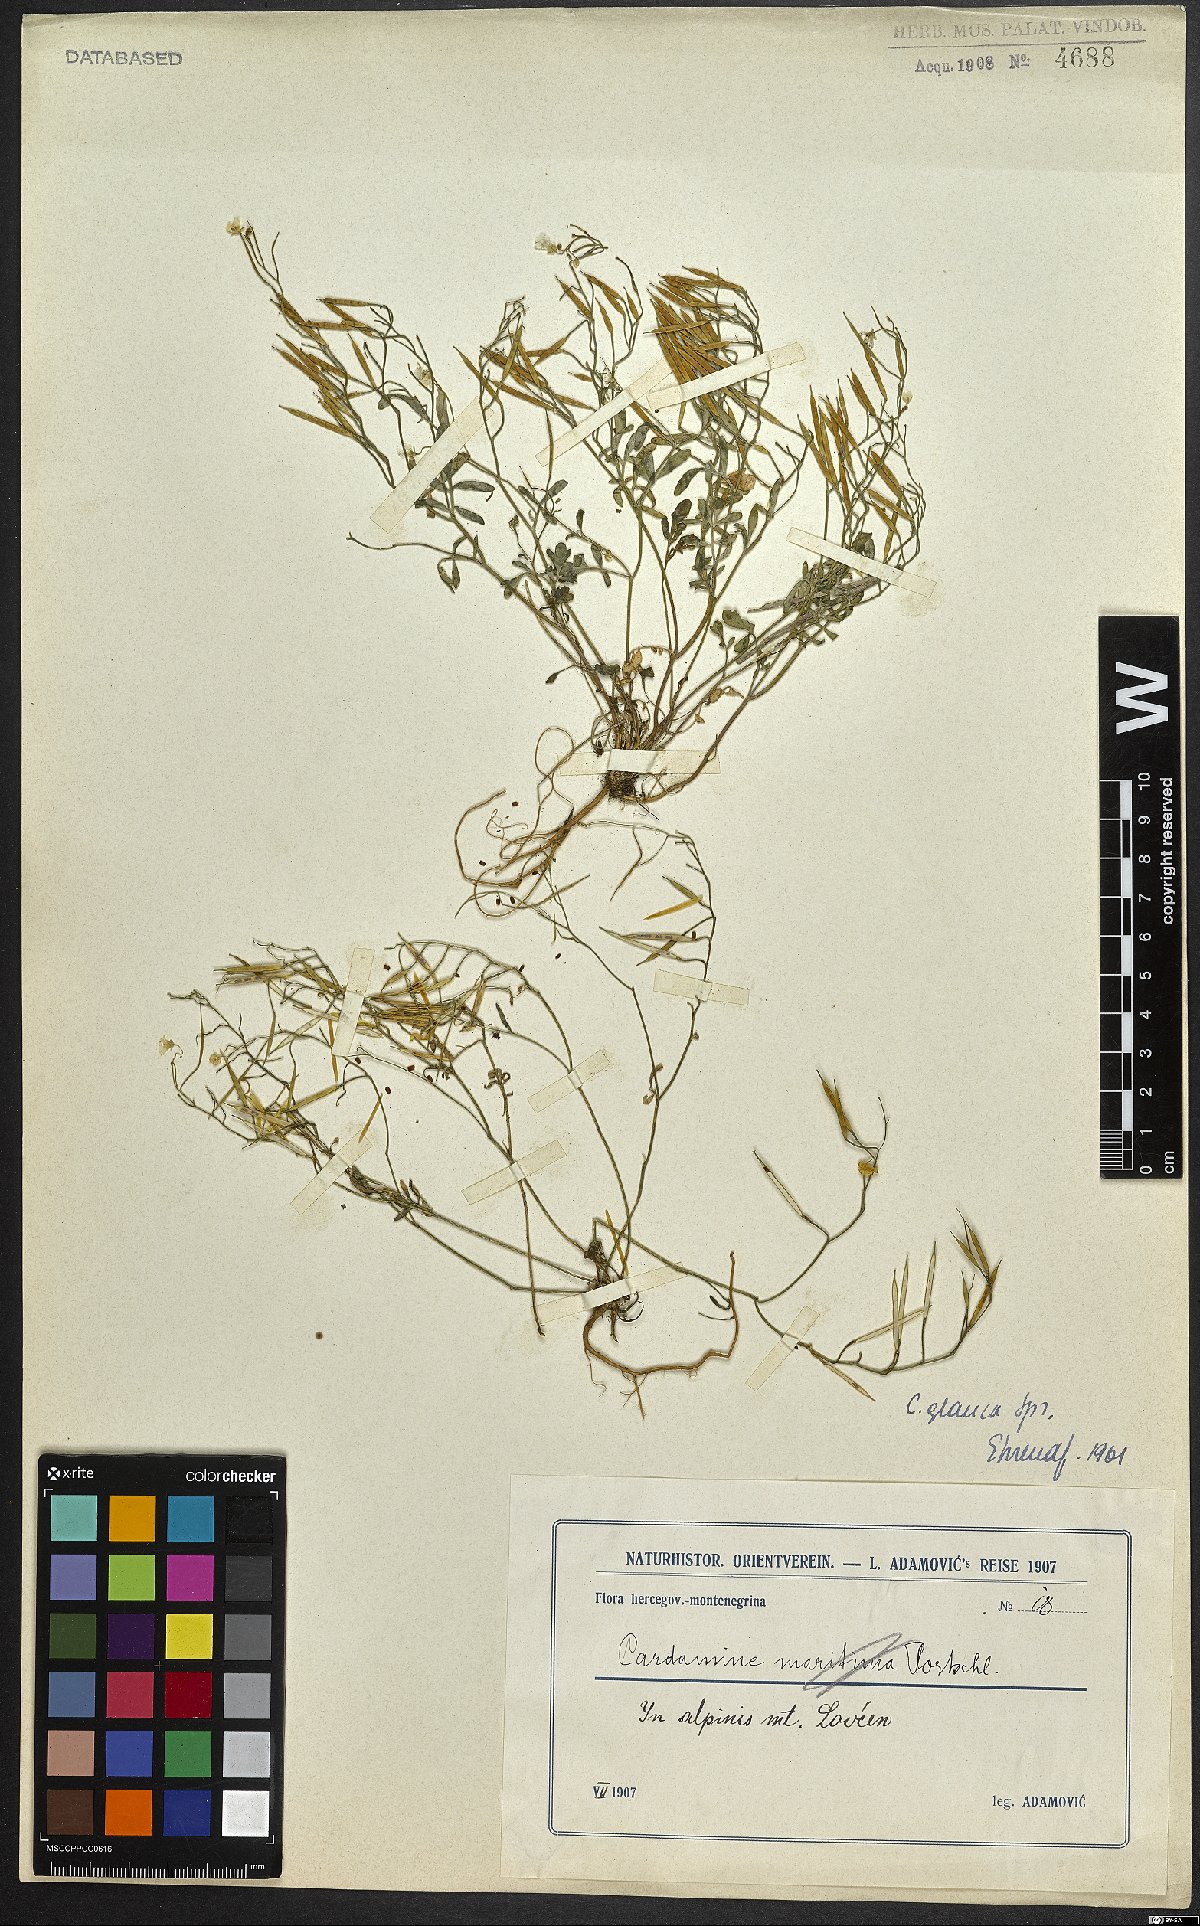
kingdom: Plantae
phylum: Tracheophyta
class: Magnoliopsida
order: Brassicales
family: Brassicaceae
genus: Cardamine
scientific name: Cardamine glauca
